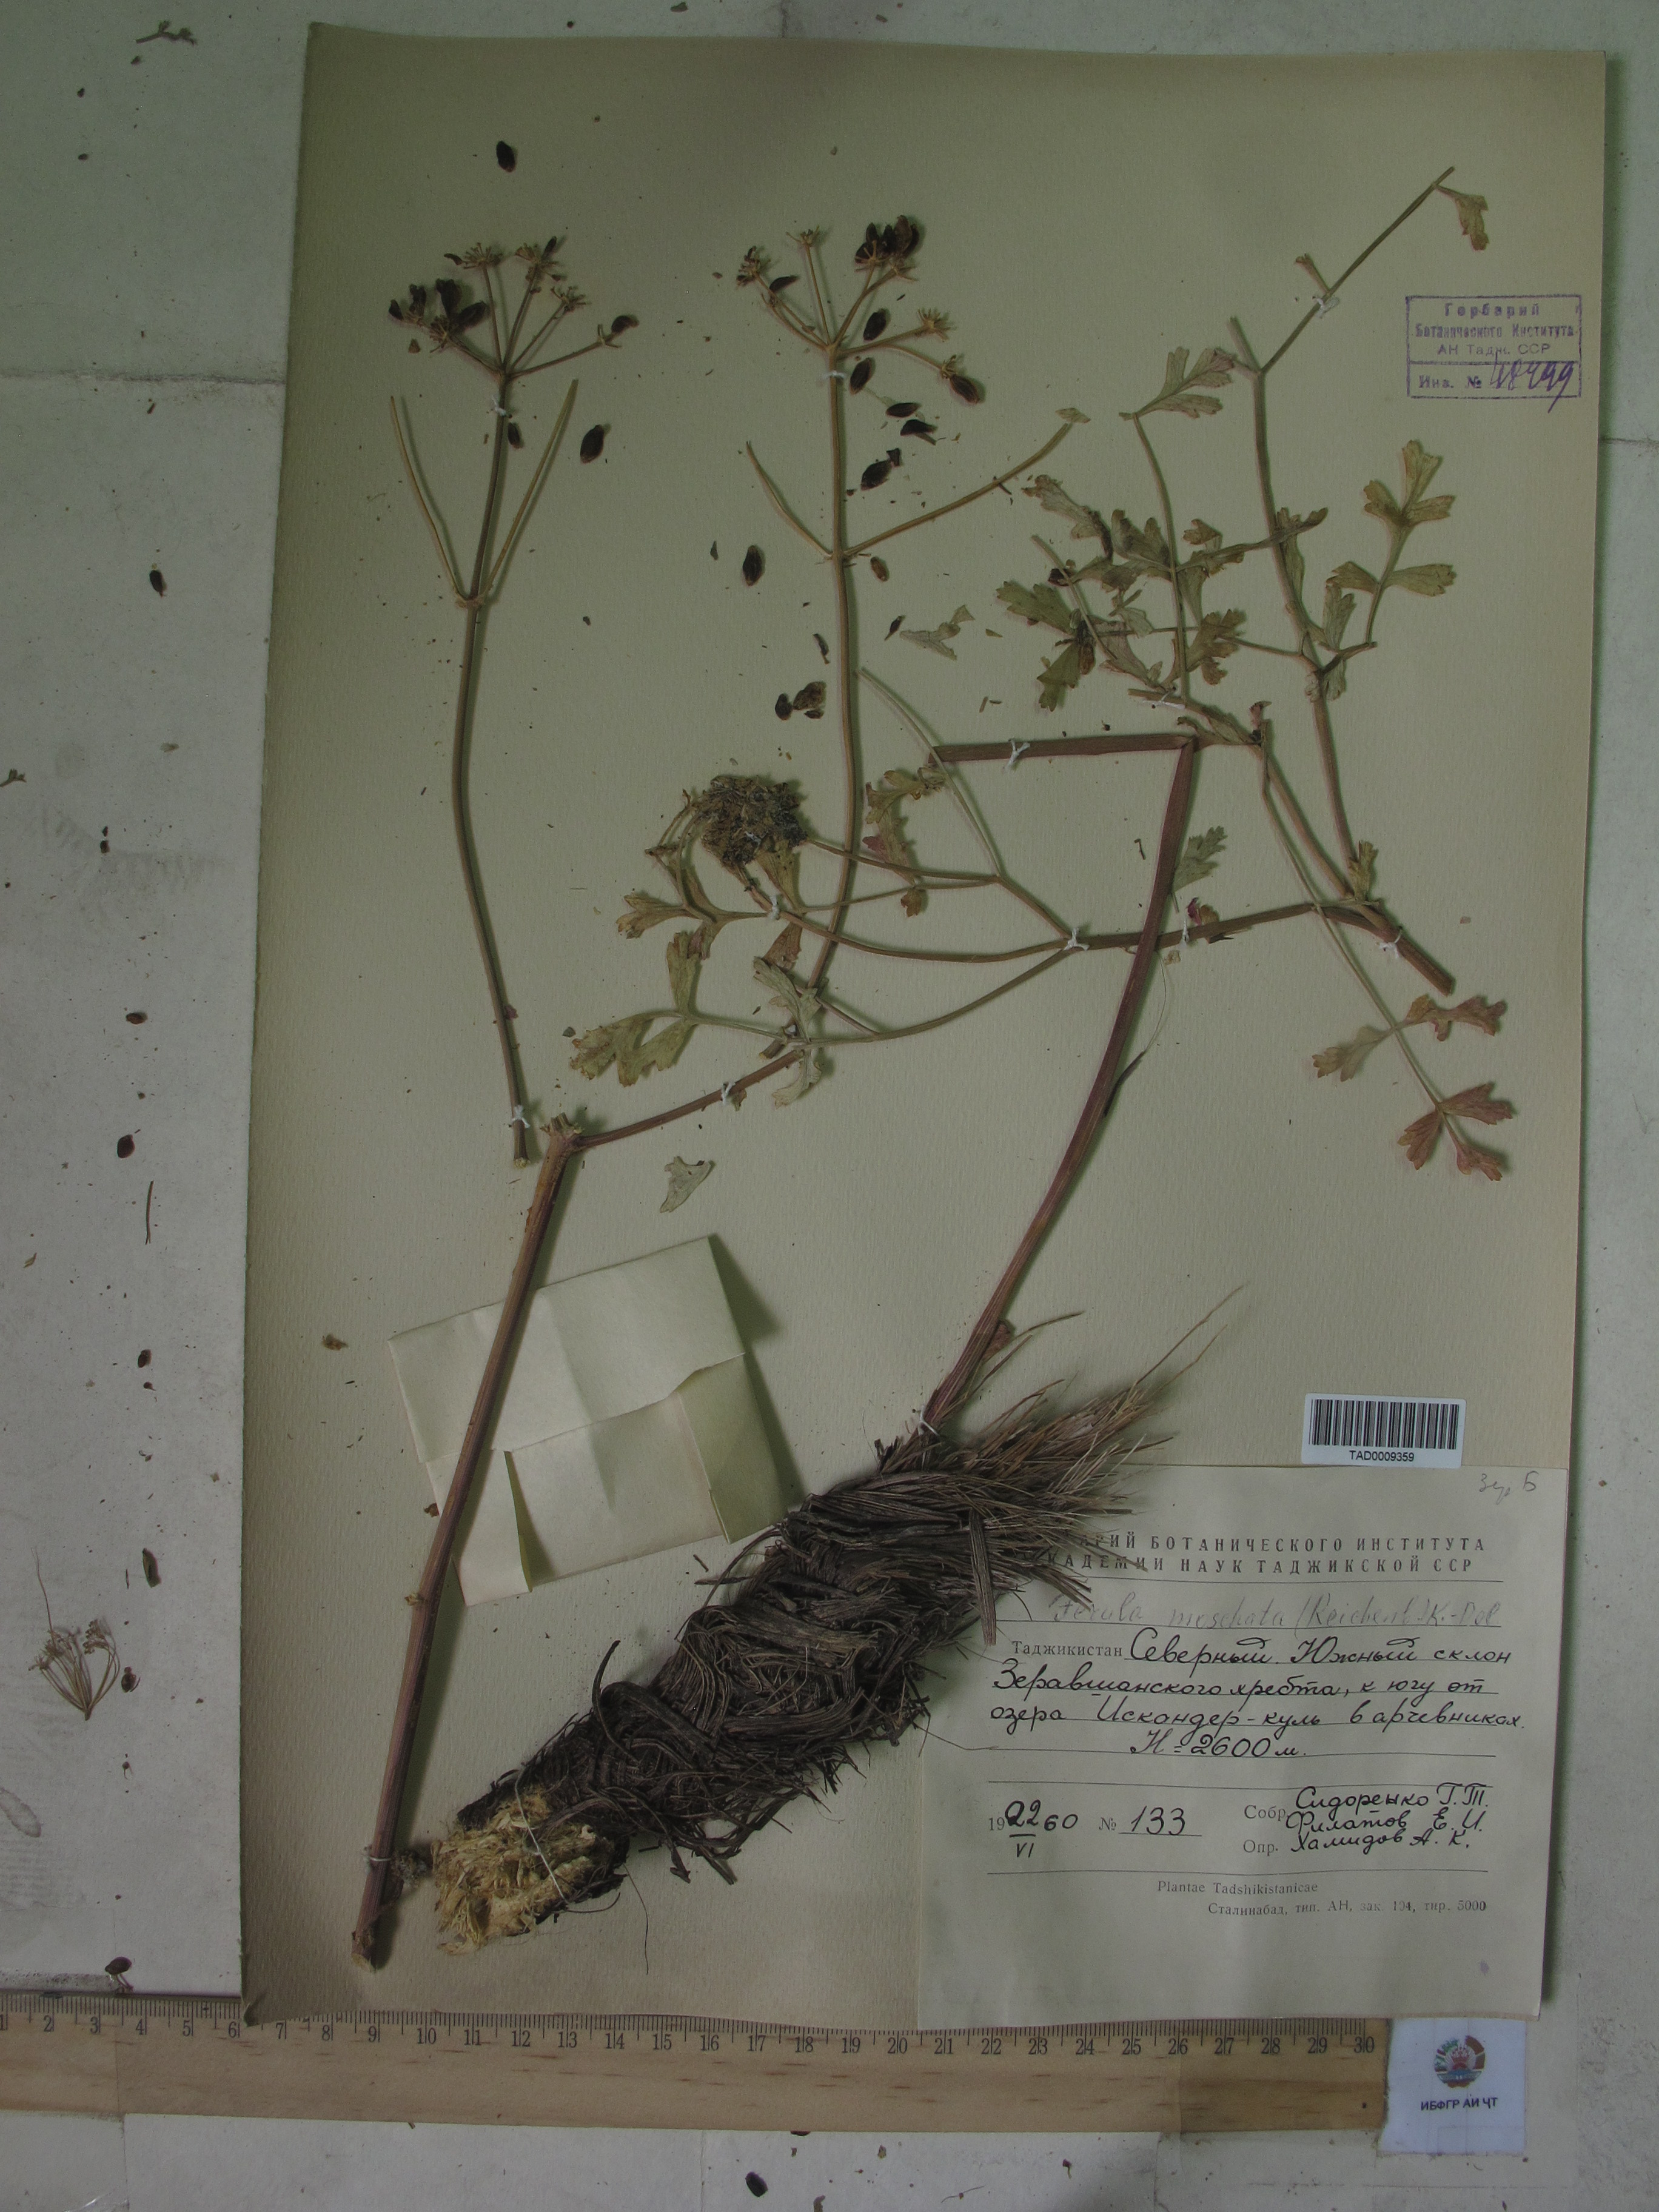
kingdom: Plantae
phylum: Tracheophyta
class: Magnoliopsida
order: Apiales
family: Apiaceae
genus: Ferula
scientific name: Ferula moschata
